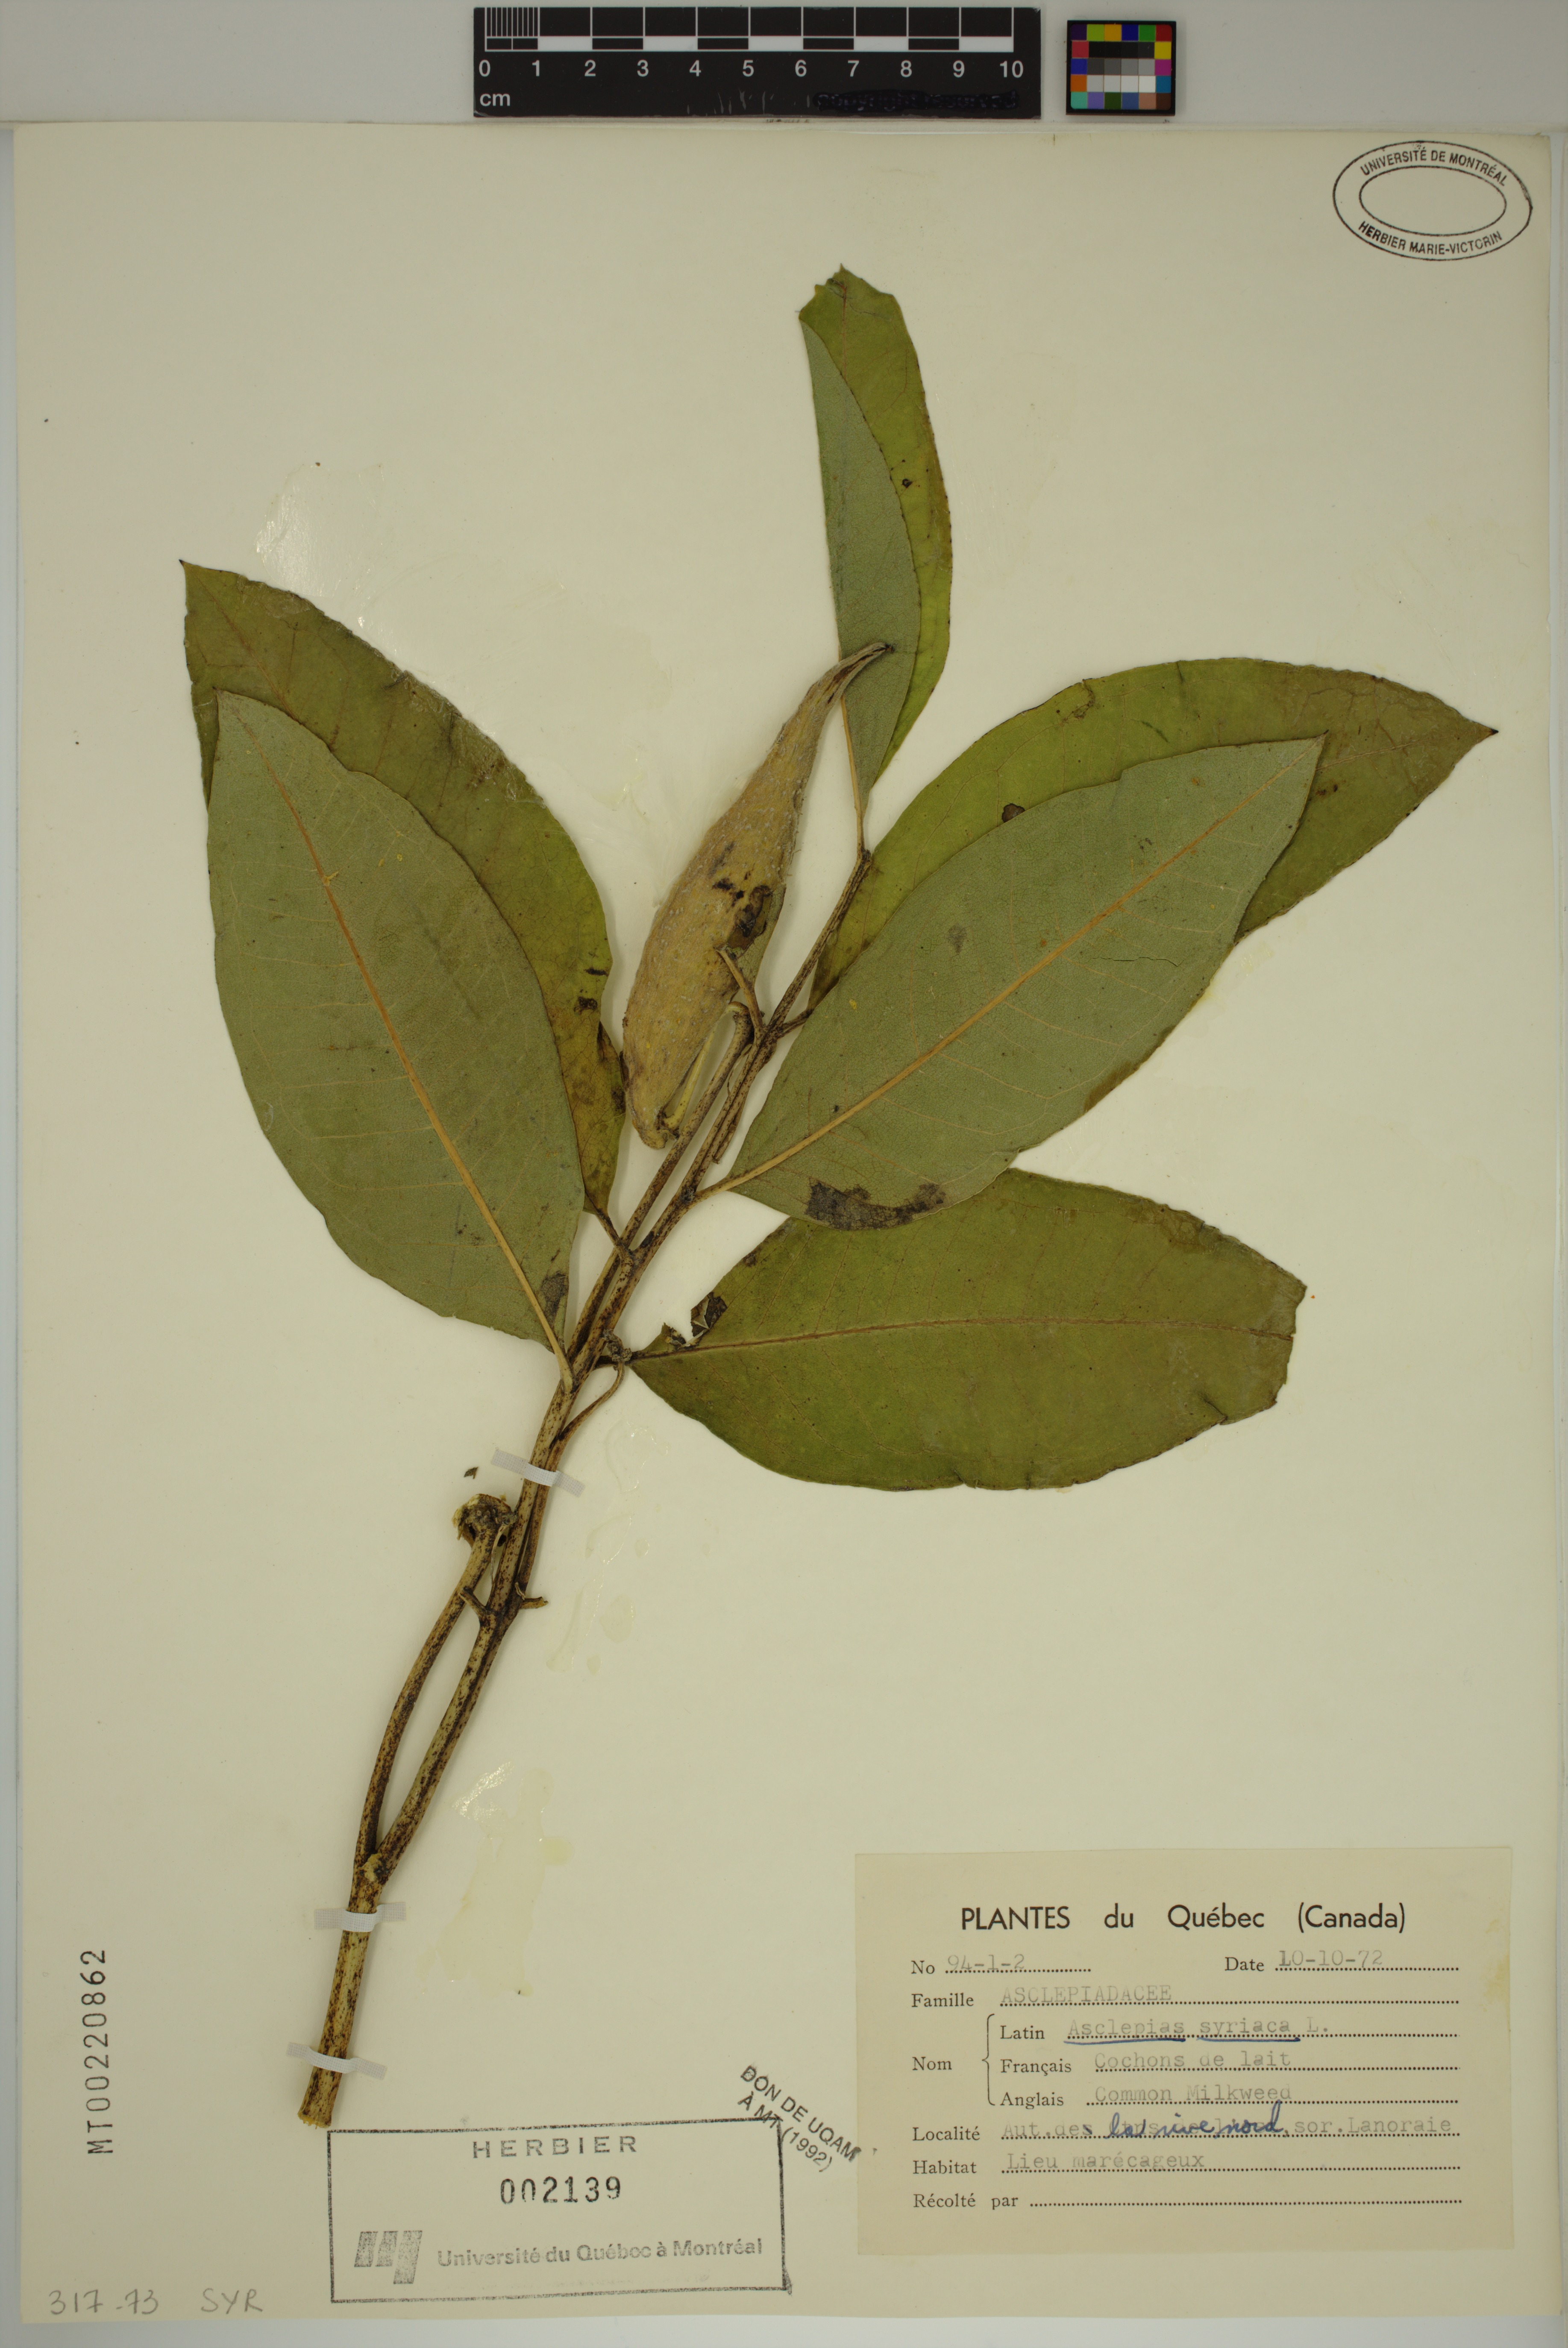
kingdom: Plantae
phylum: Tracheophyta
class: Magnoliopsida
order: Gentianales
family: Apocynaceae
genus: Asclepias
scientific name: Asclepias syriaca
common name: Common milkweed
